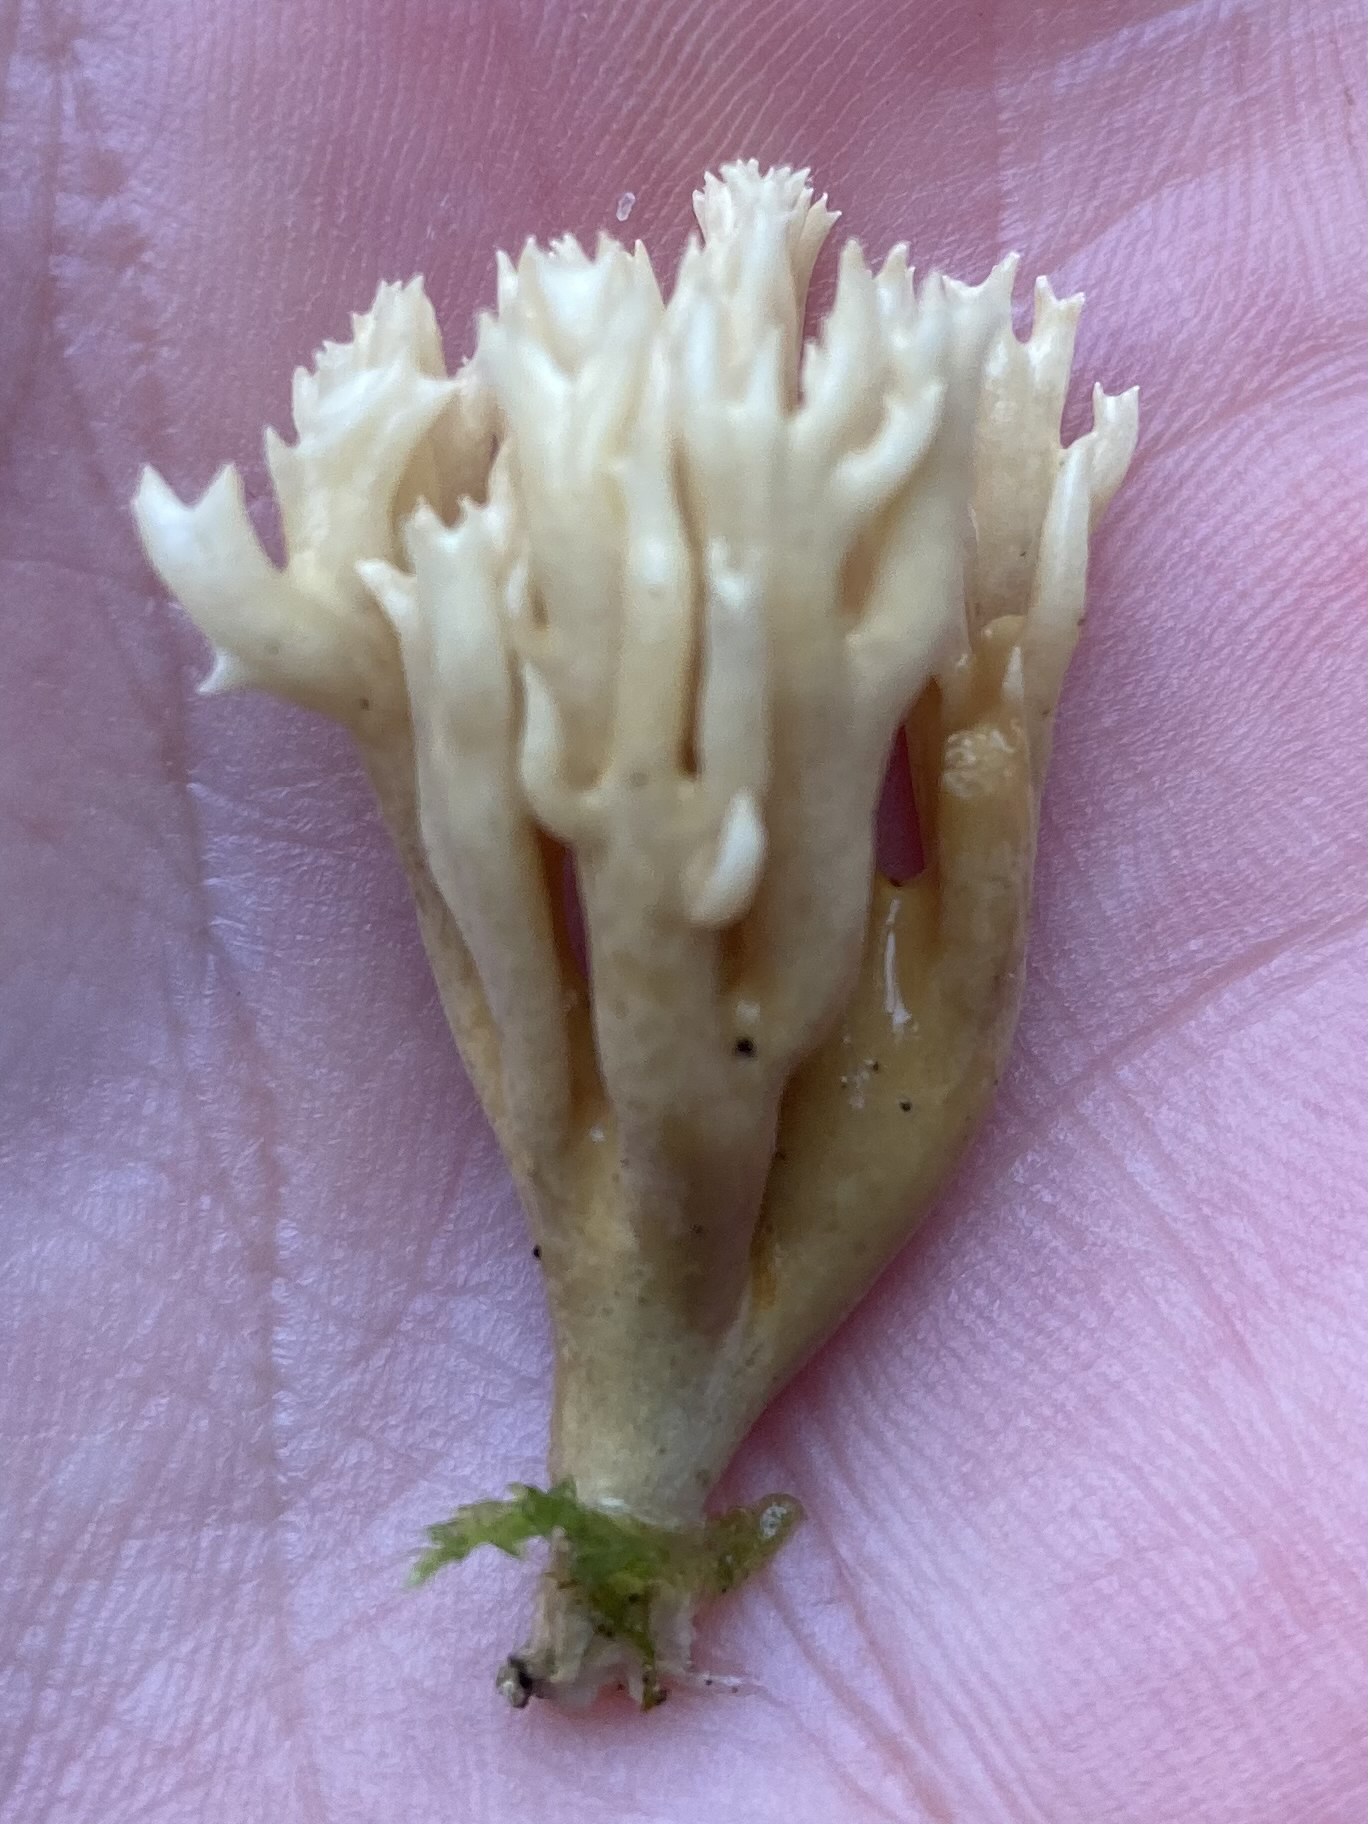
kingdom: Fungi
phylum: Basidiomycota
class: Agaricomycetes
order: Gomphales
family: Gomphaceae
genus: Phaeoclavulina
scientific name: Phaeoclavulina eumorpha
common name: gran-koralsvamp
